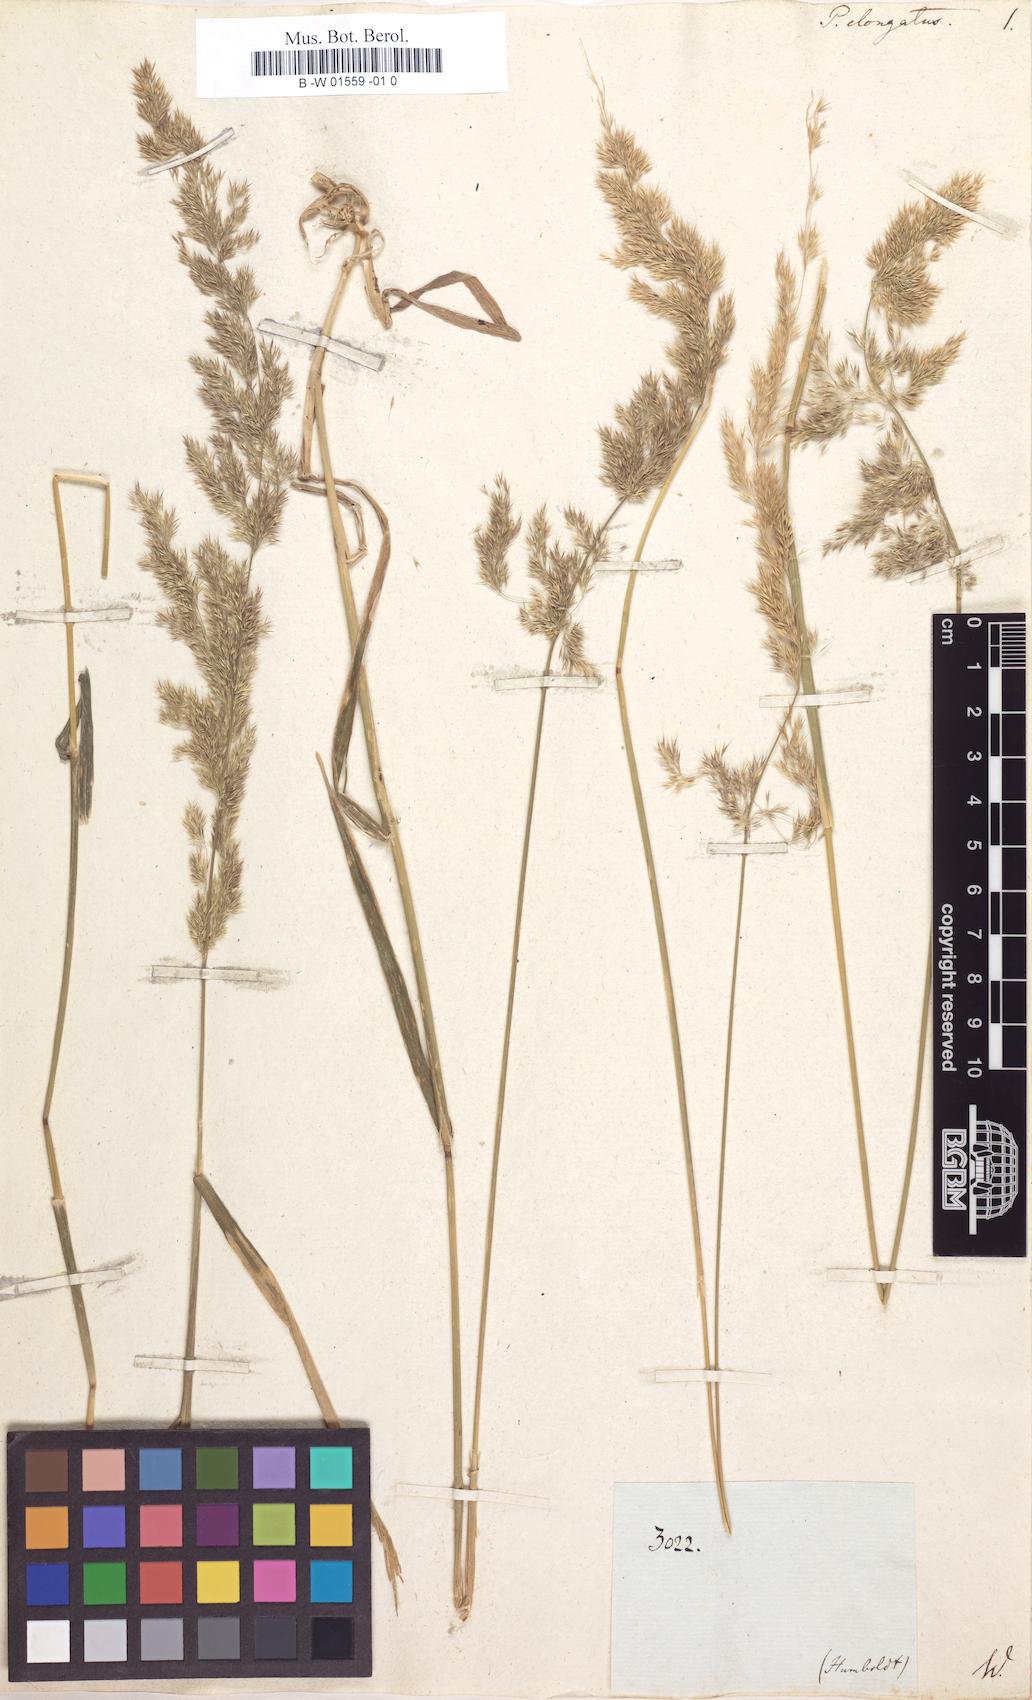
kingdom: Plantae
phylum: Tracheophyta
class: Liliopsida
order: Poales
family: Poaceae
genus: Polypogon
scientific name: Polypogon elongatus
